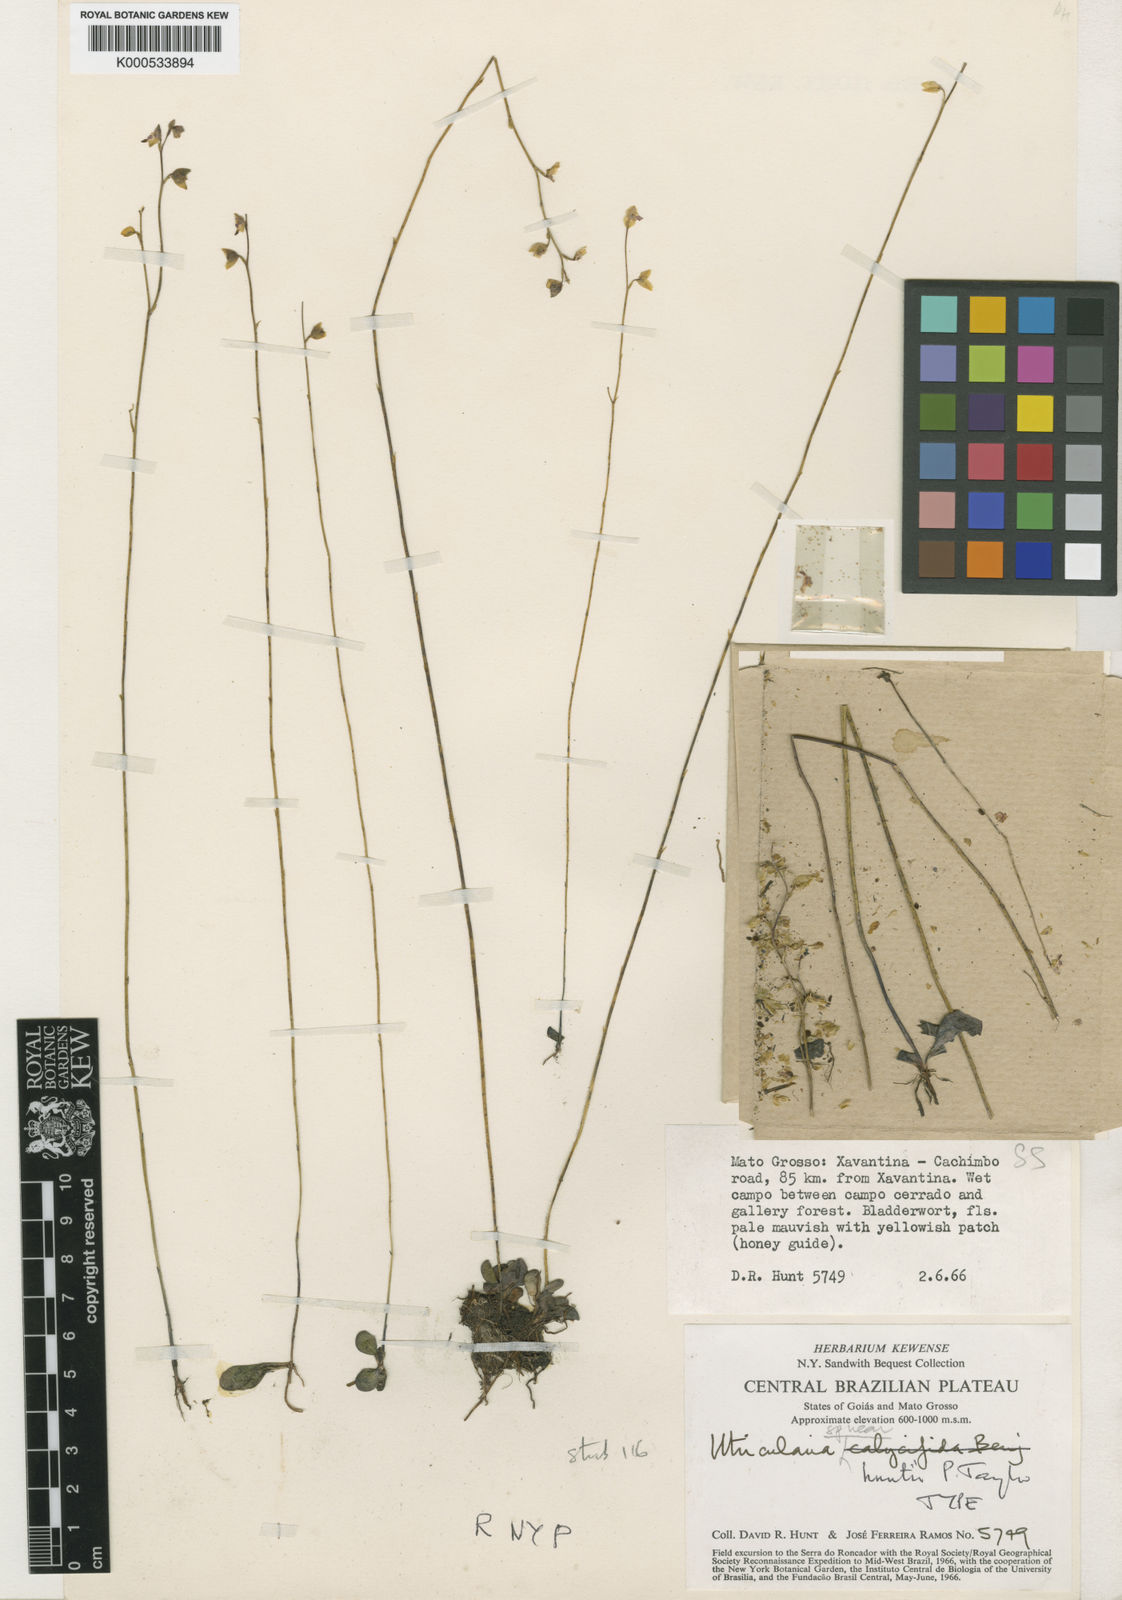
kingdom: Plantae
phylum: Tracheophyta
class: Magnoliopsida
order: Lamiales
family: Lentibulariaceae
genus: Utricularia
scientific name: Utricularia huntii
